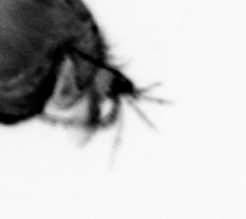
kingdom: Animalia
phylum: Annelida
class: Polychaeta
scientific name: Polychaeta
